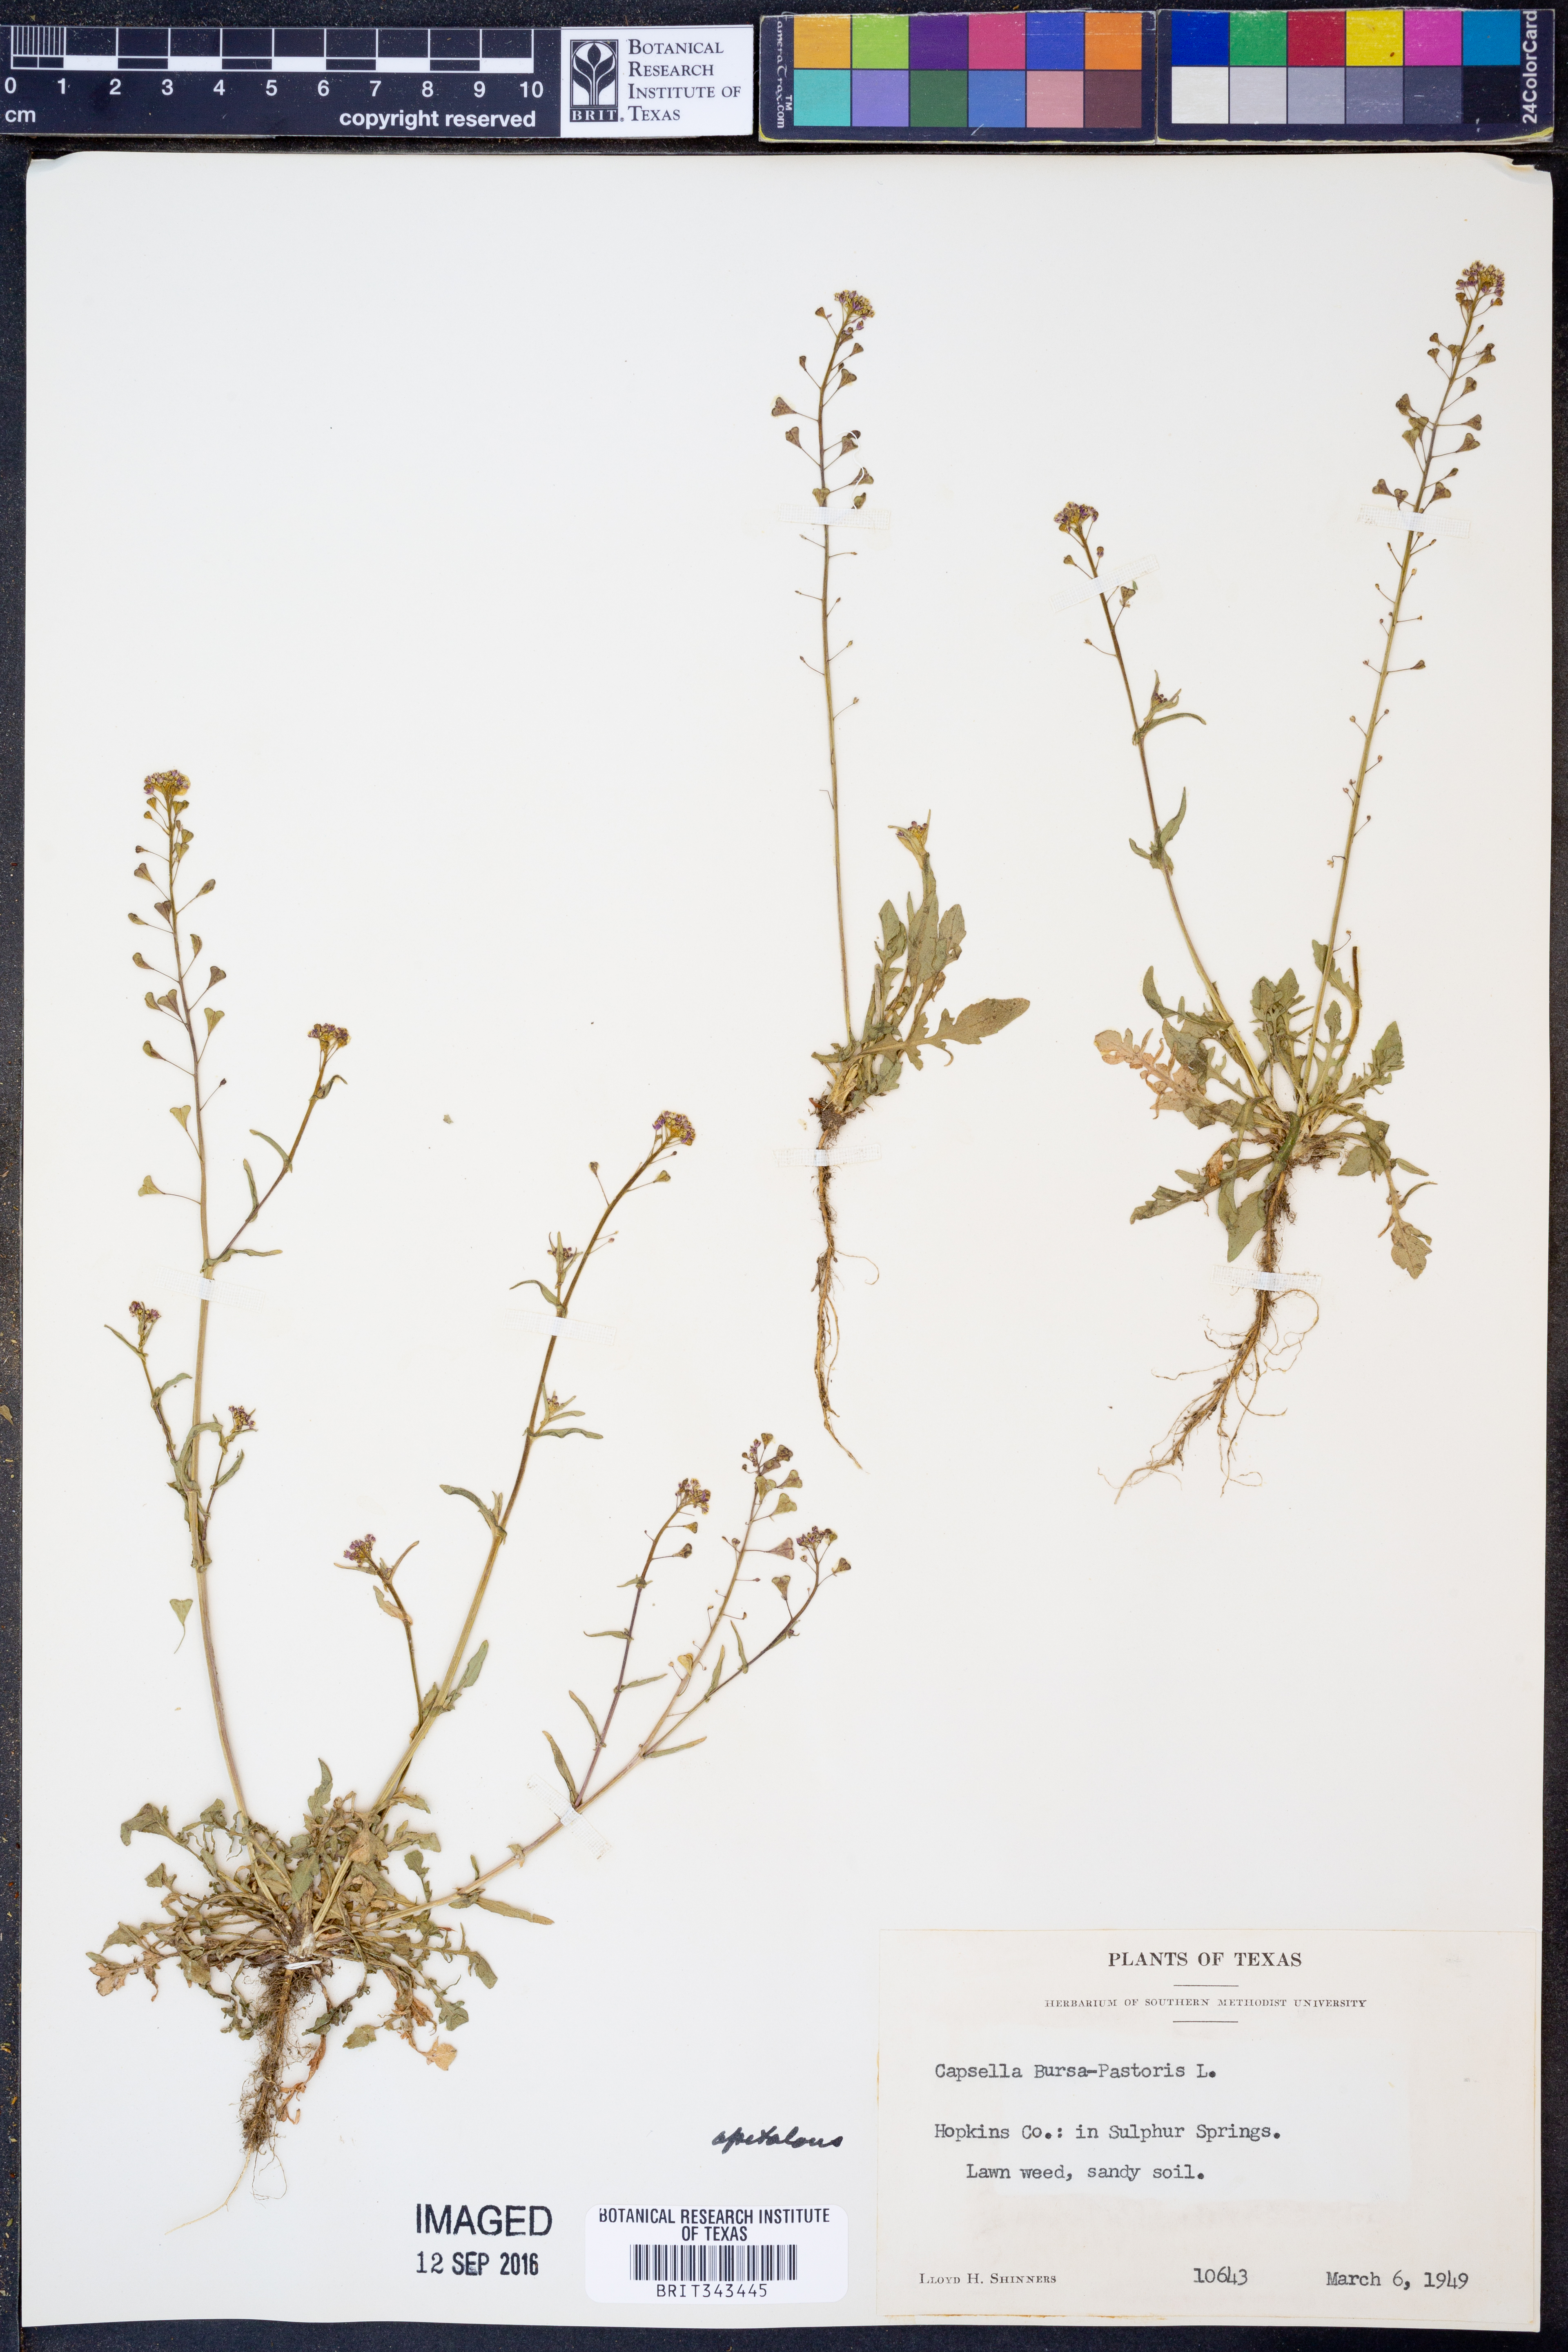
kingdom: Plantae
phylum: Tracheophyta
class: Magnoliopsida
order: Brassicales
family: Brassicaceae
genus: Capsella
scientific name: Capsella bursa-pastoris
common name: Shepherd's purse
